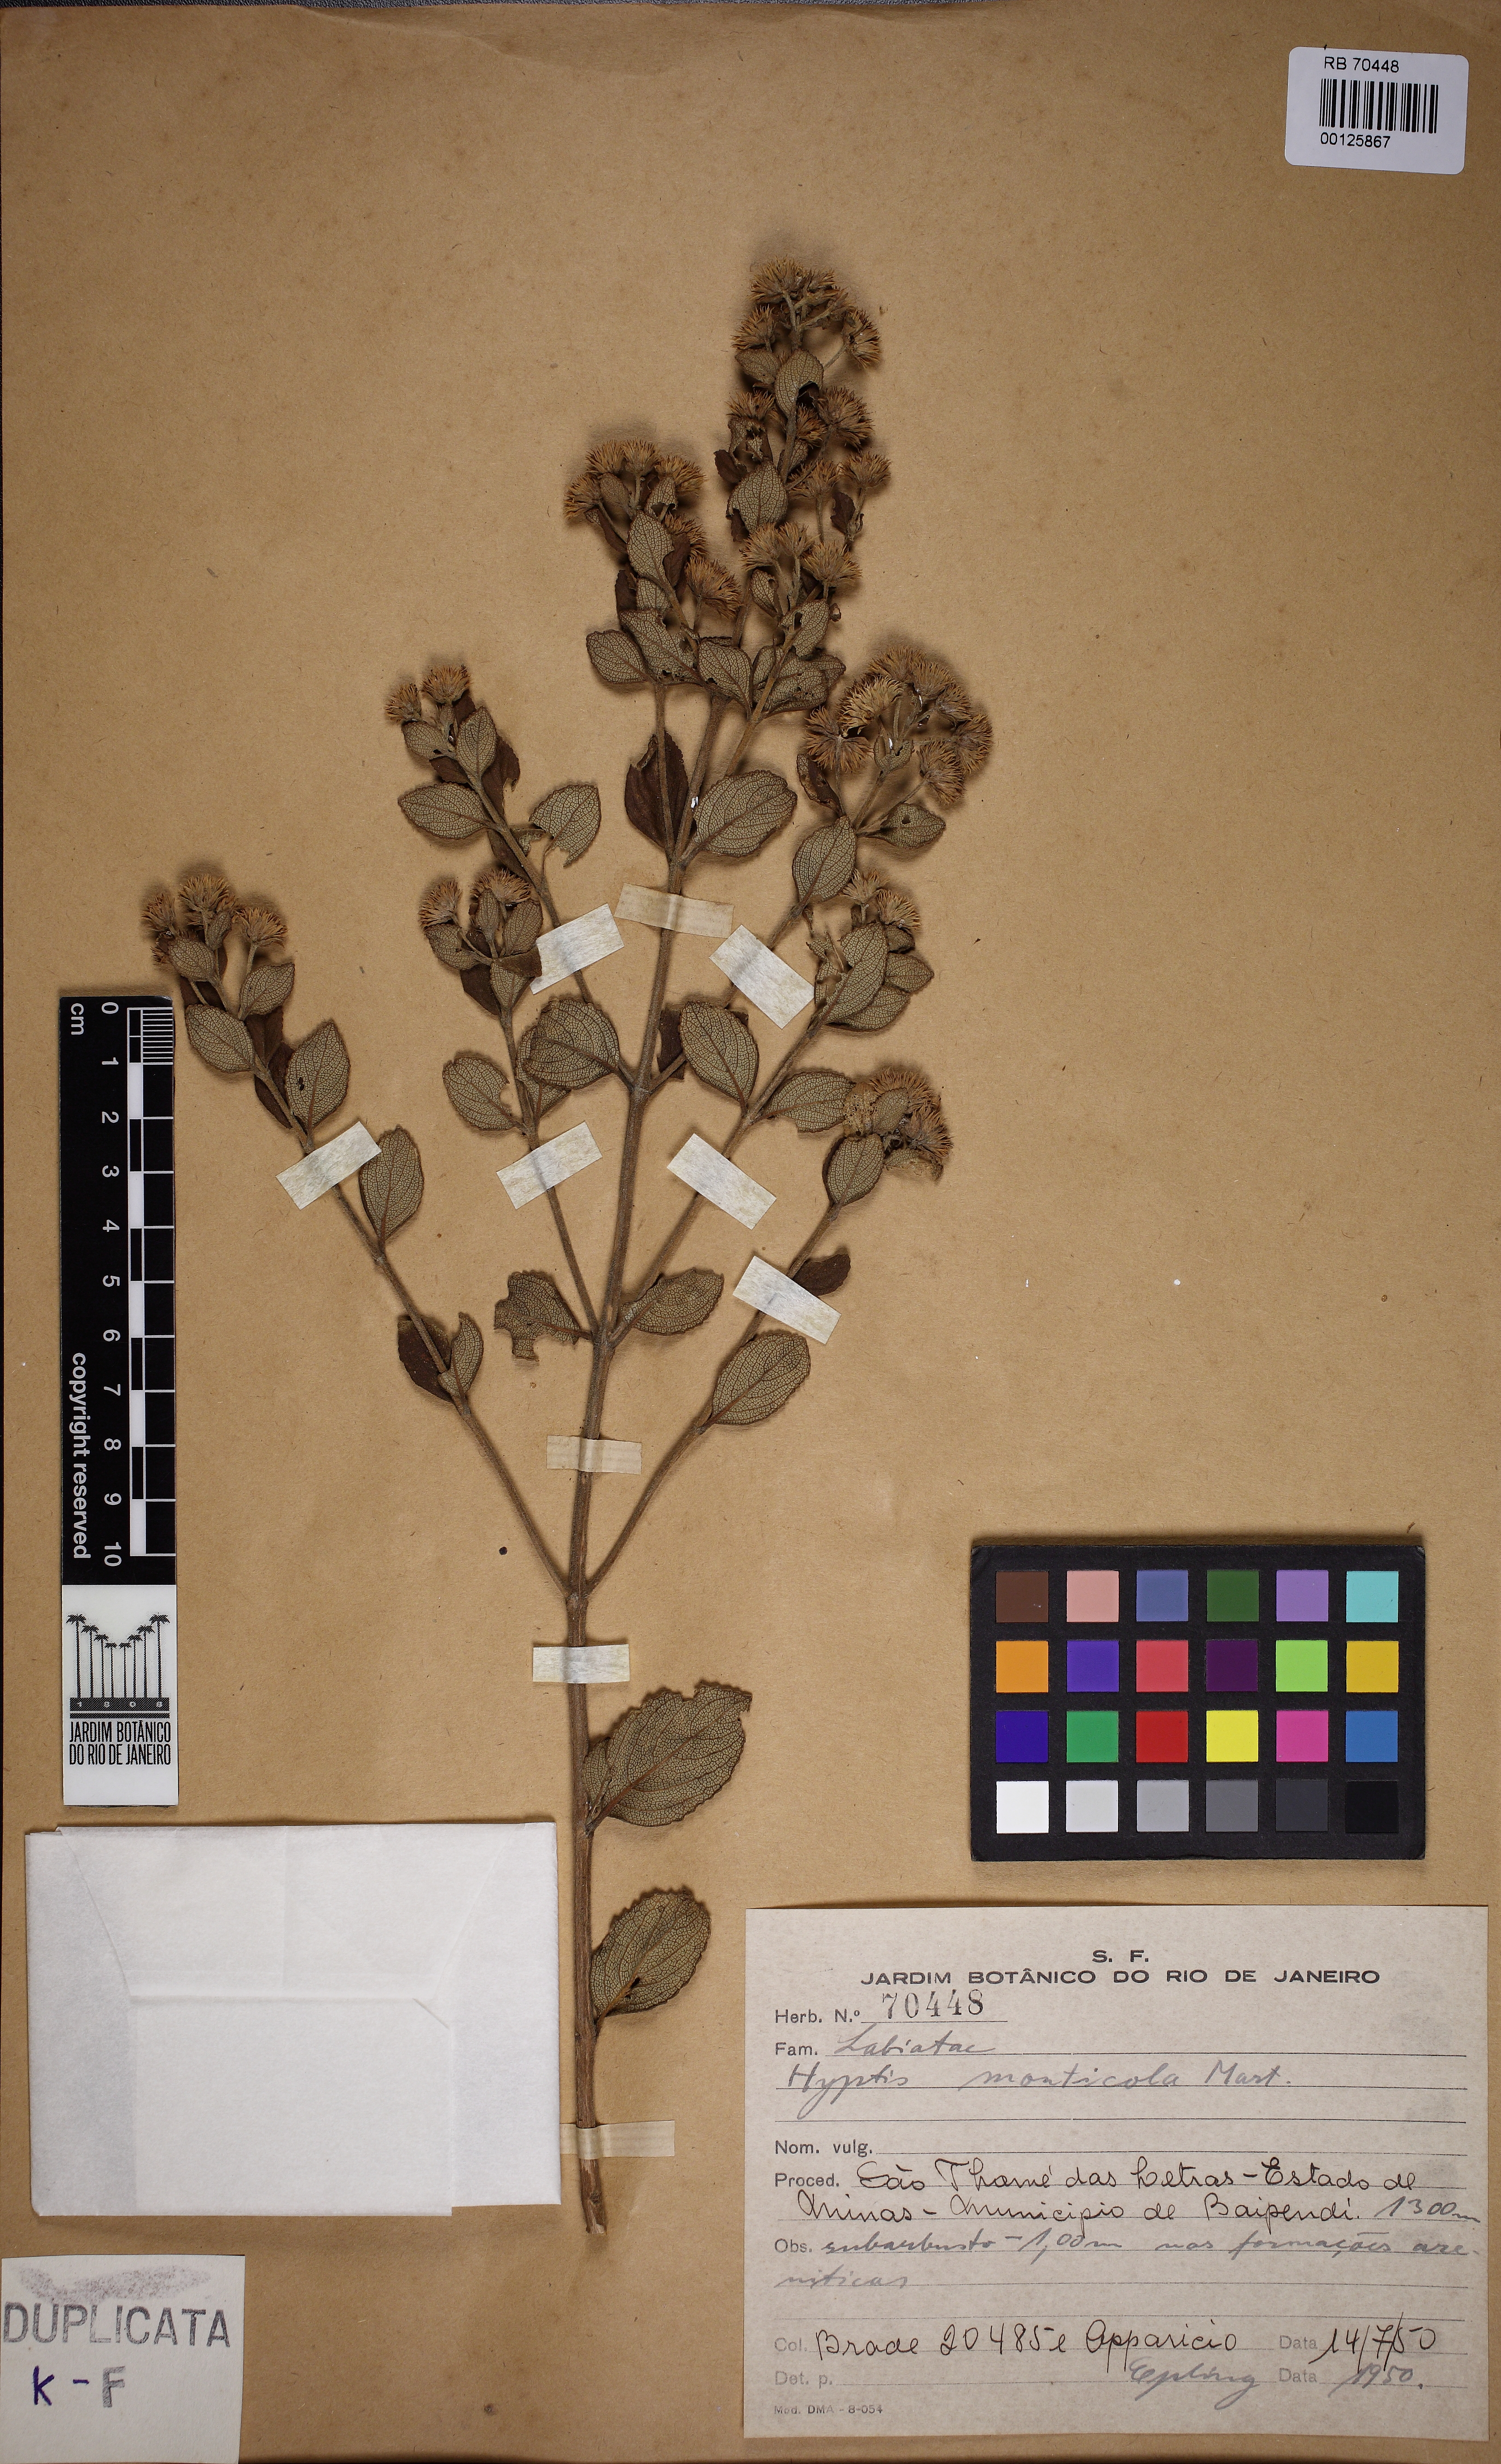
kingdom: Plantae
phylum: Tracheophyta
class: Magnoliopsida
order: Lamiales
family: Lamiaceae
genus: Hyptis
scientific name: Hyptis monticola
